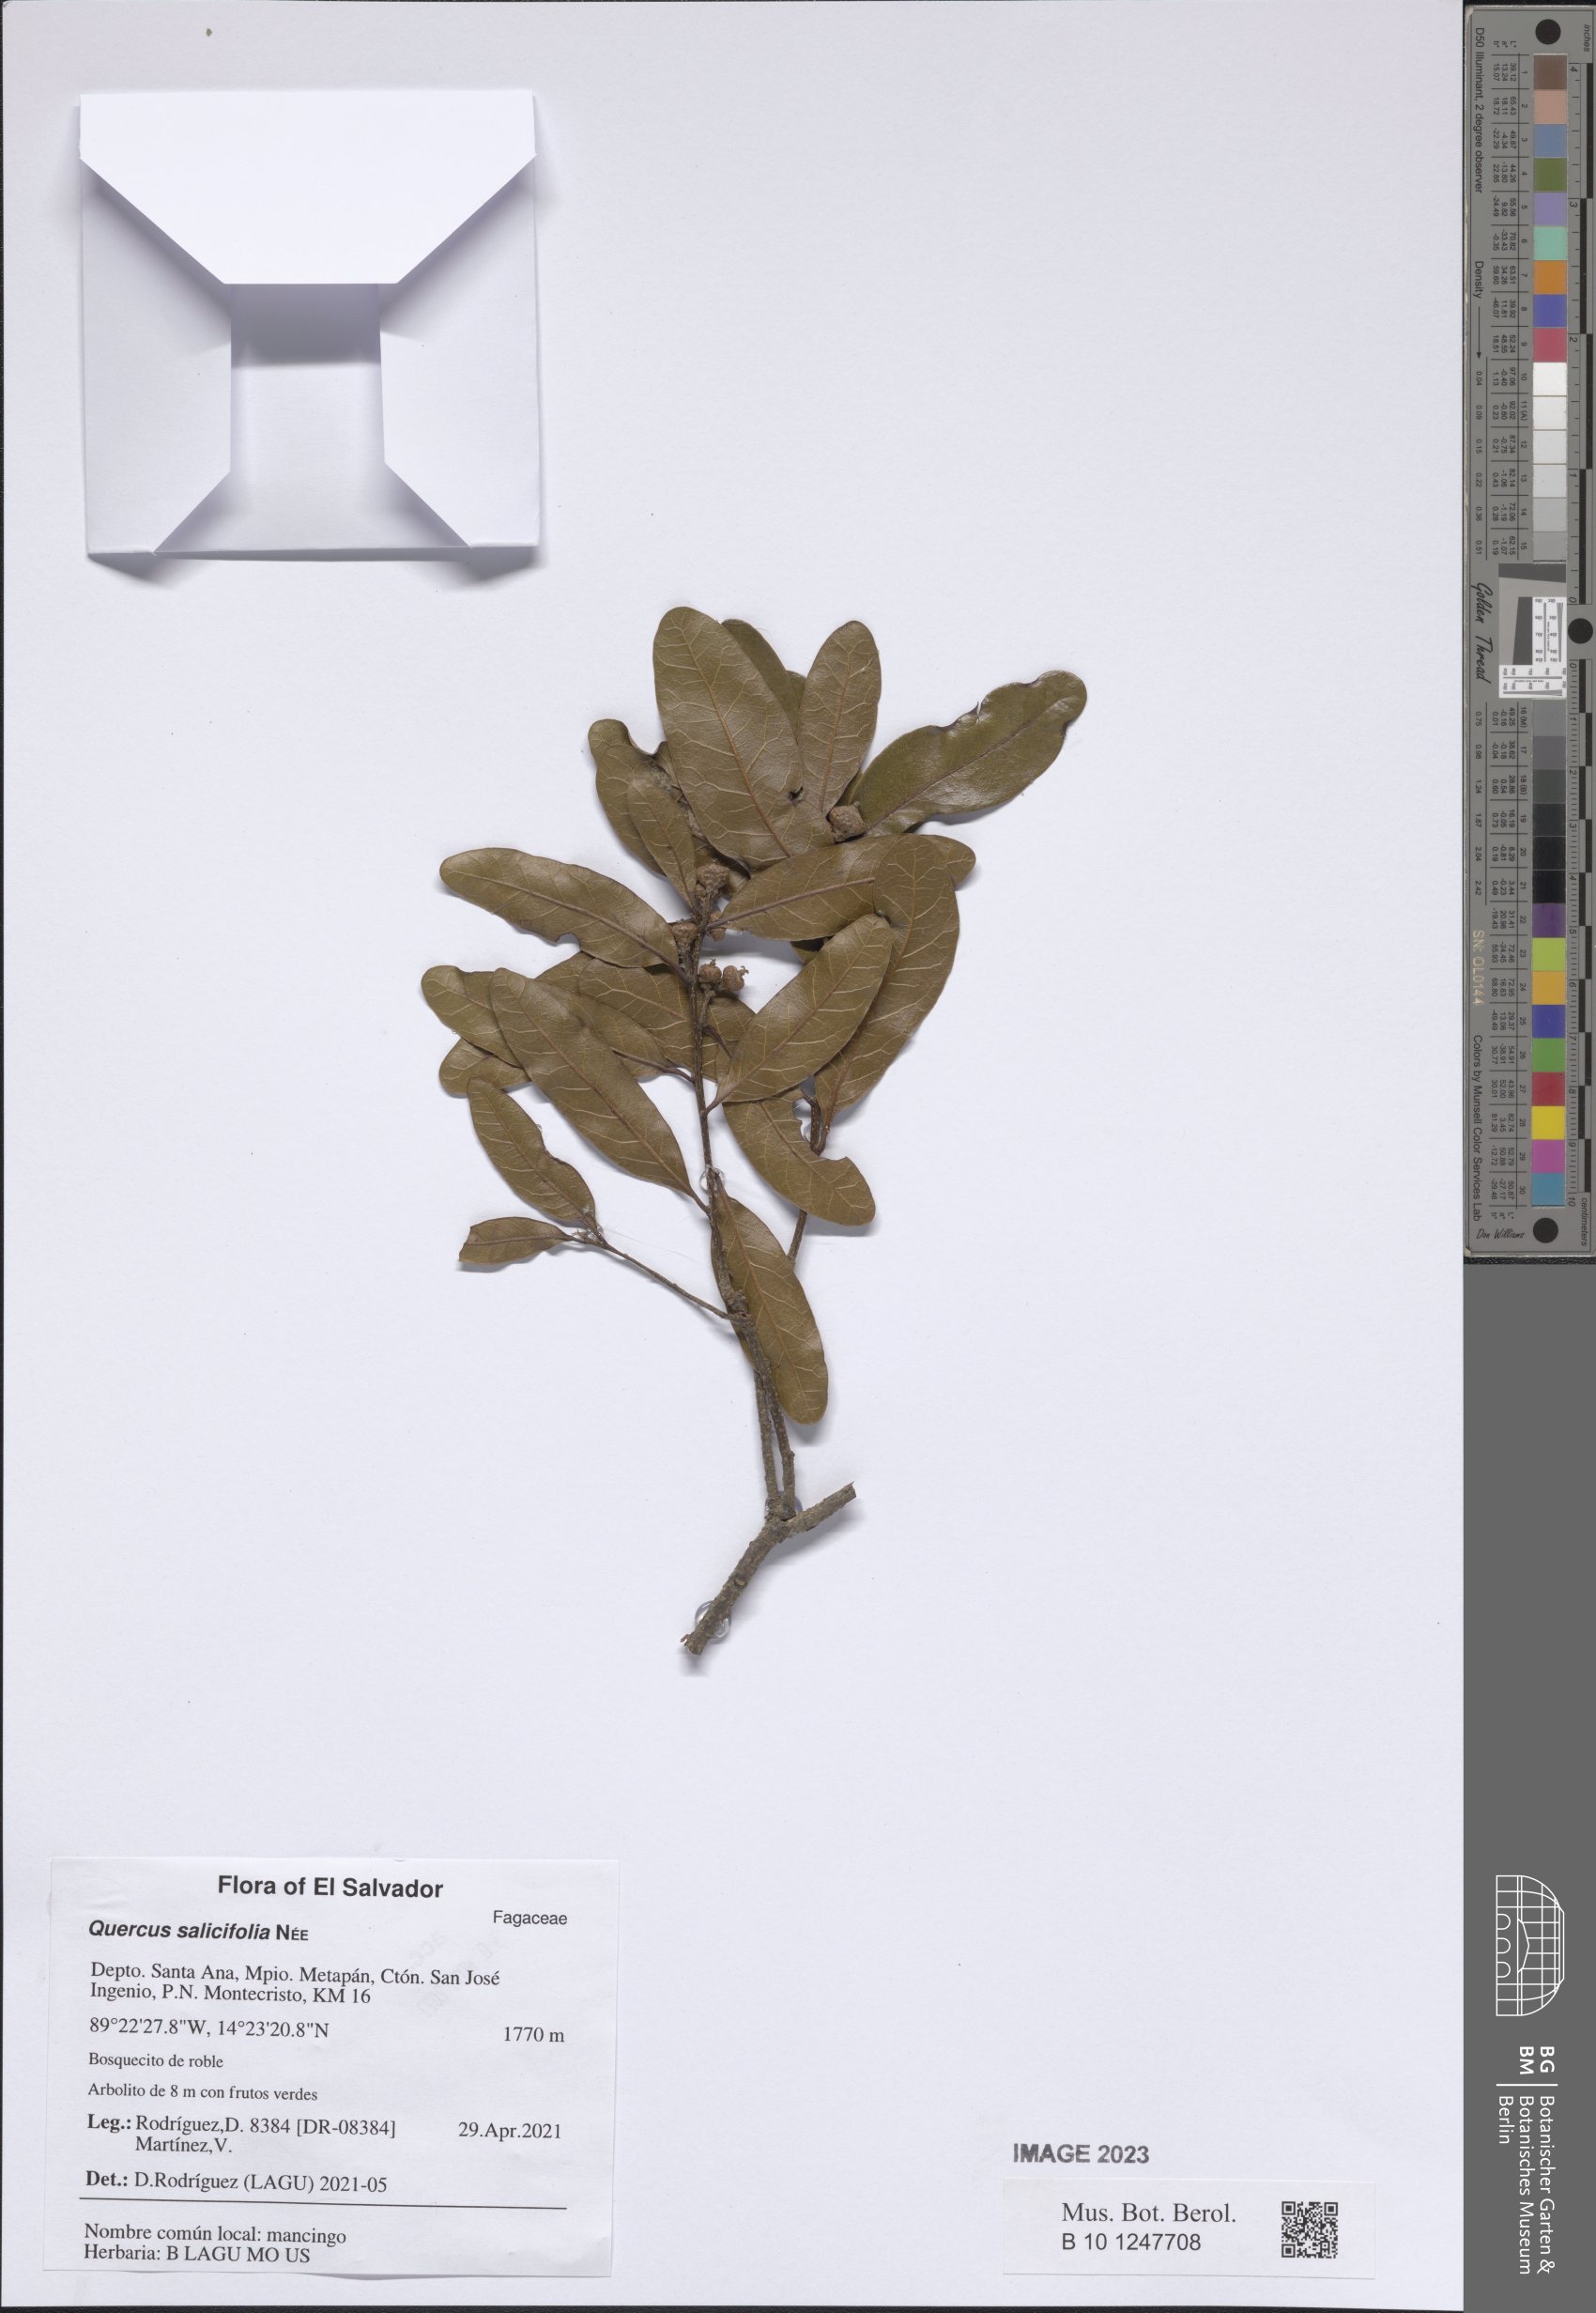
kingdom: Plantae
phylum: Tracheophyta
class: Magnoliopsida
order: Fagales
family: Fagaceae
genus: Quercus
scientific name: Quercus salicifolia
